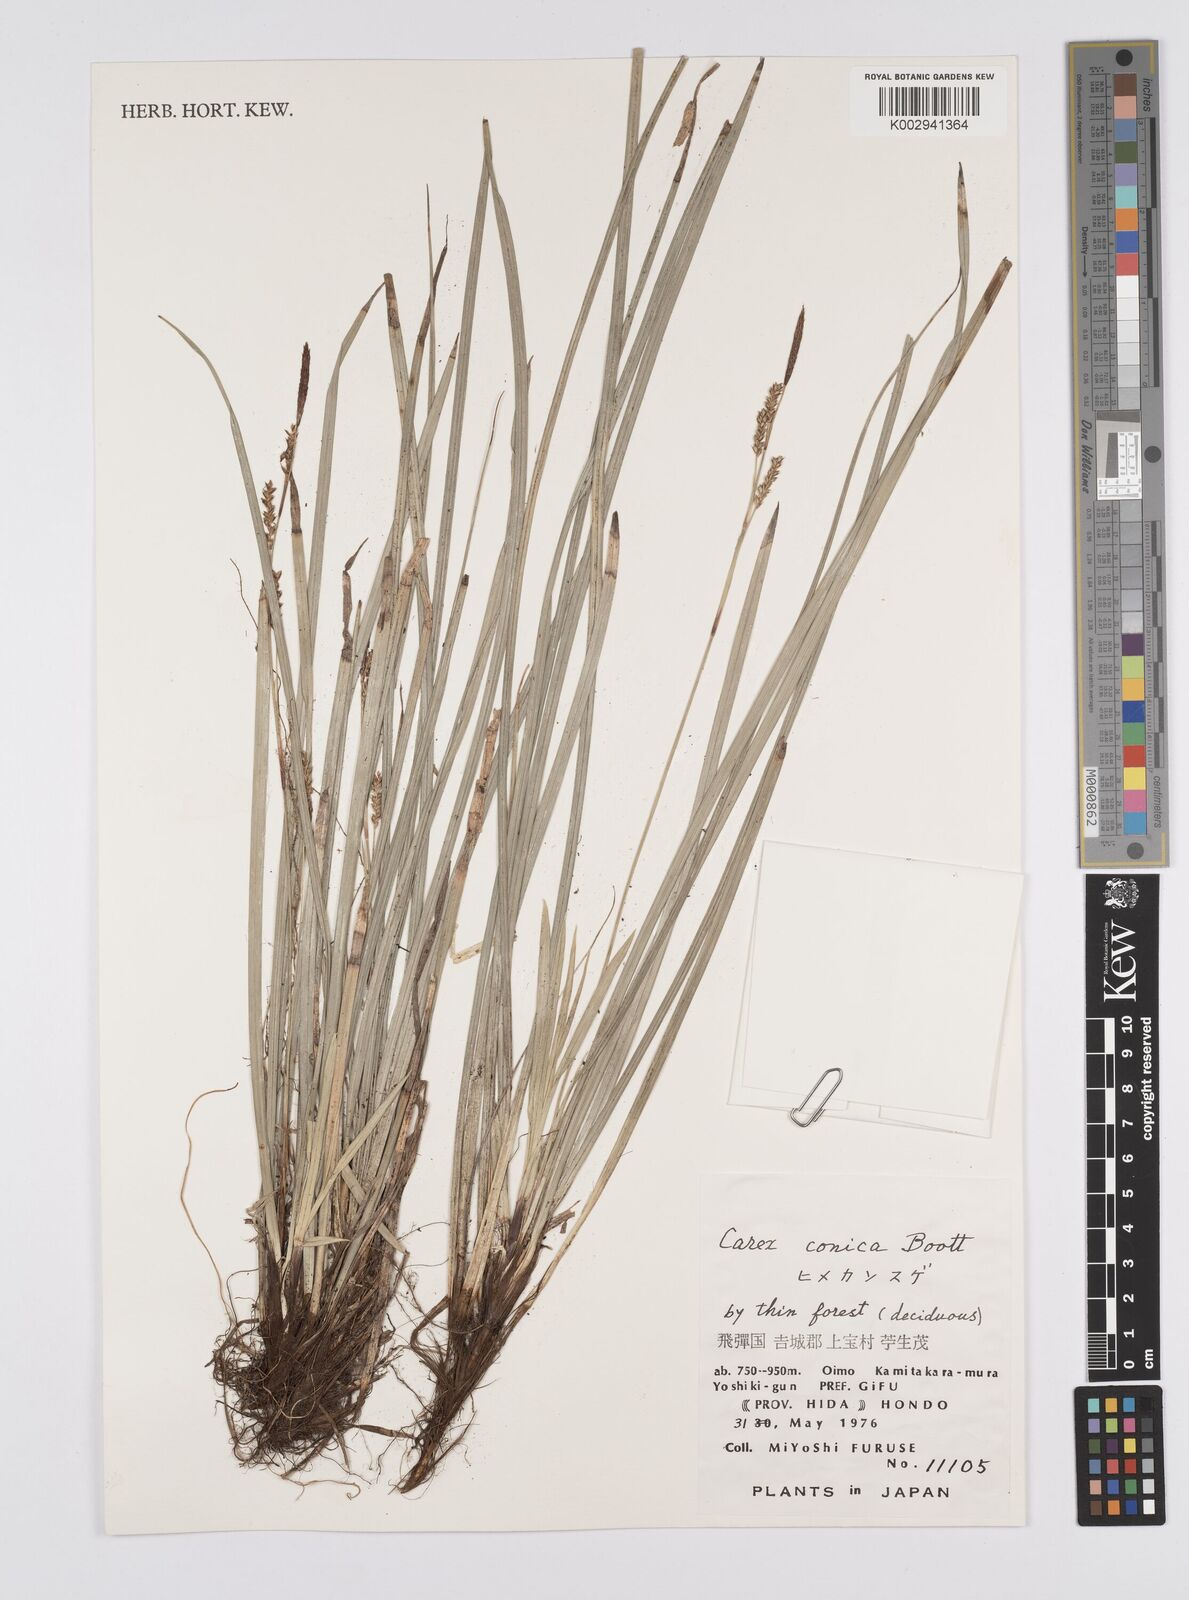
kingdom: Plantae
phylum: Tracheophyta
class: Liliopsida
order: Poales
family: Cyperaceae
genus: Carex
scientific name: Carex conica
